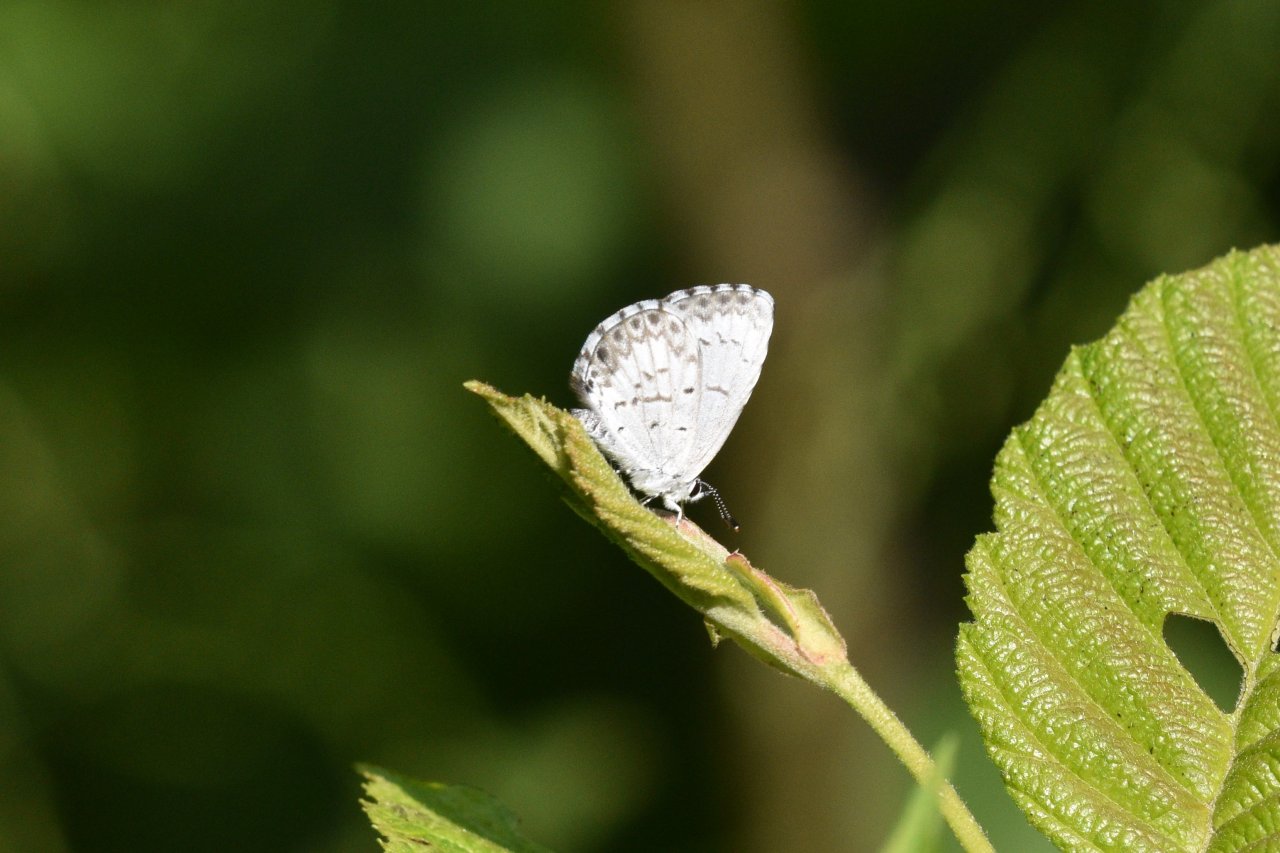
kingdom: Animalia
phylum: Arthropoda
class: Insecta
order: Lepidoptera
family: Lycaenidae
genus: Celastrina
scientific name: Celastrina lucia
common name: Northern Spring Azure
